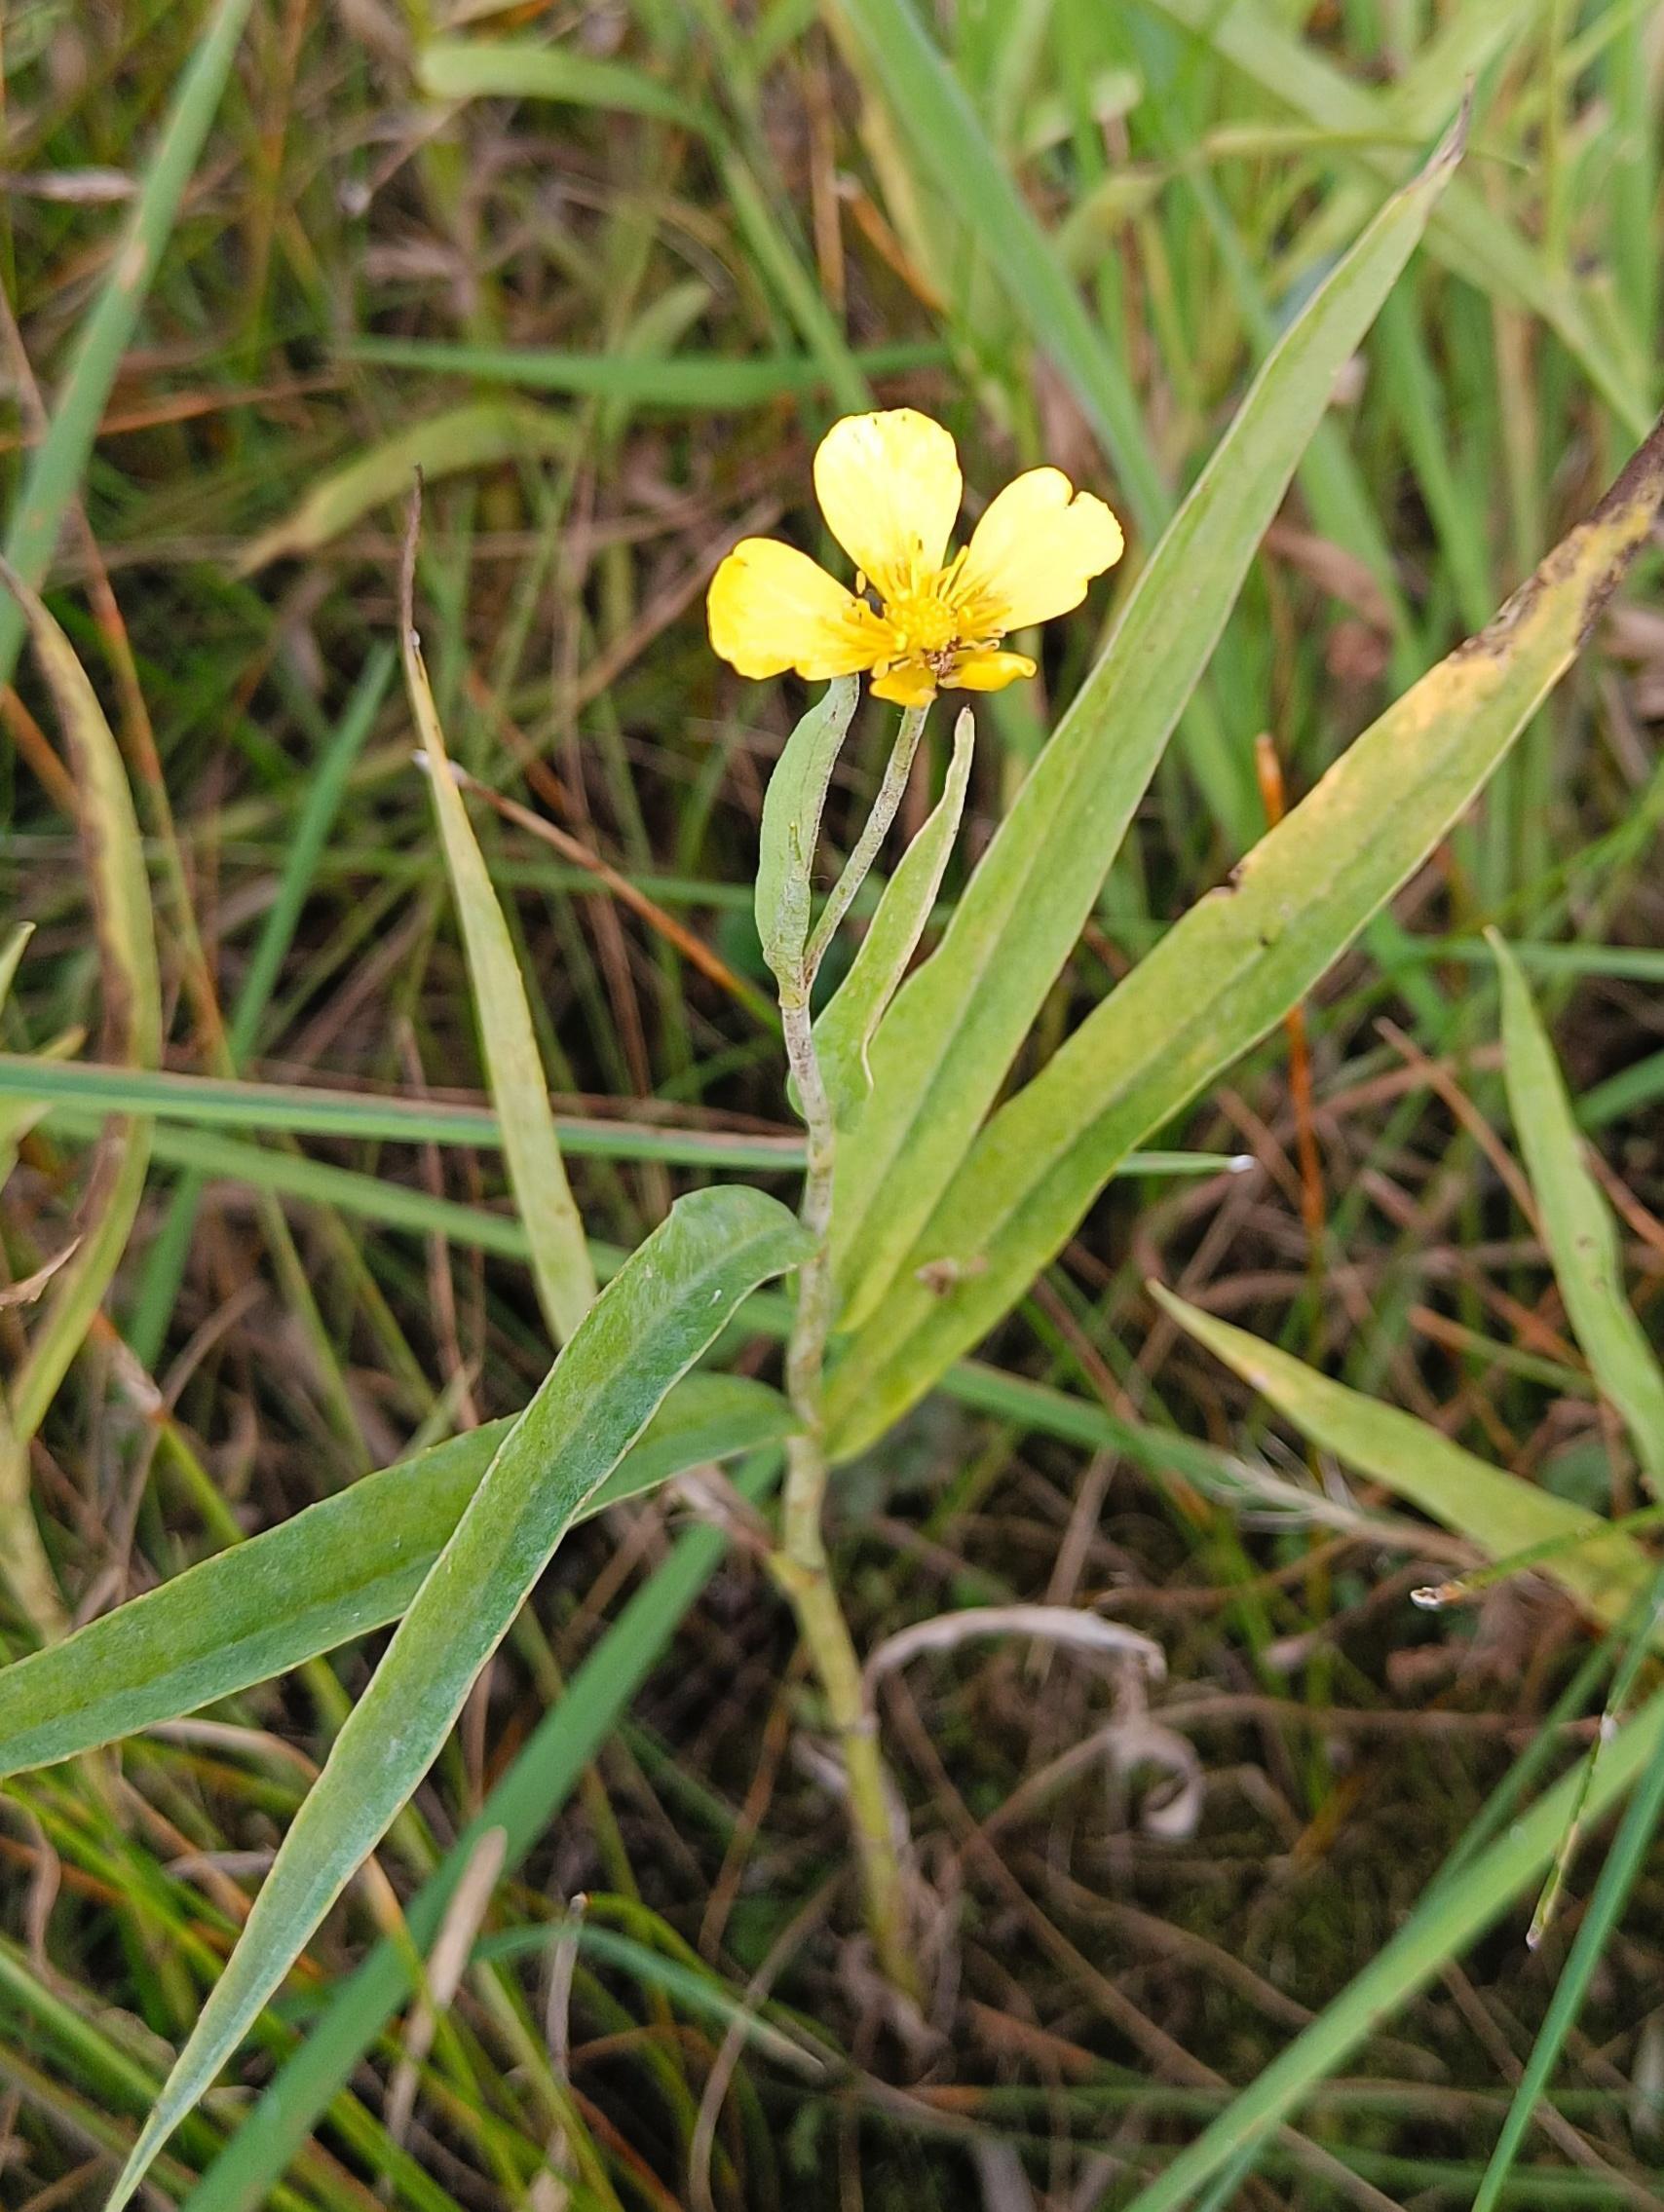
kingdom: Plantae
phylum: Tracheophyta
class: Magnoliopsida
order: Ranunculales
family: Ranunculaceae
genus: Ranunculus
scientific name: Ranunculus lingua
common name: Langbladet ranunkel
